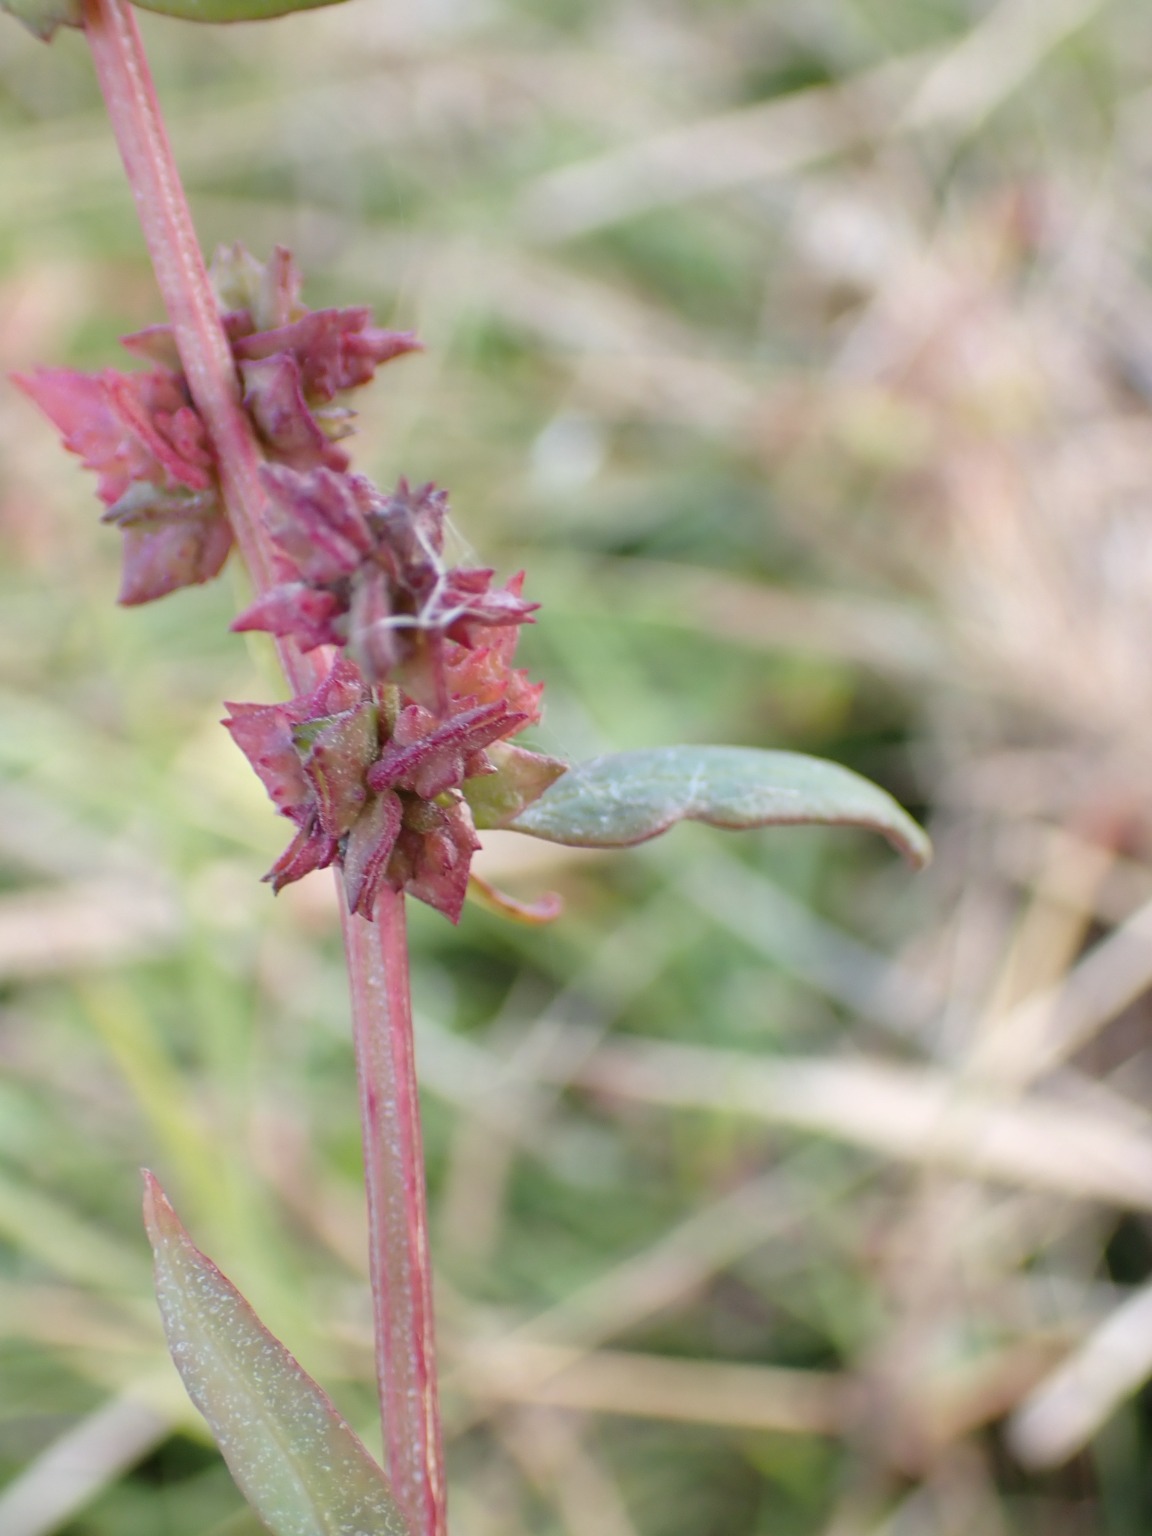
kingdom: Plantae
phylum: Tracheophyta
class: Magnoliopsida
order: Caryophyllales
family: Amaranthaceae
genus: Atriplex
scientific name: Atriplex glabriuscula
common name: Tykbladet mælde
